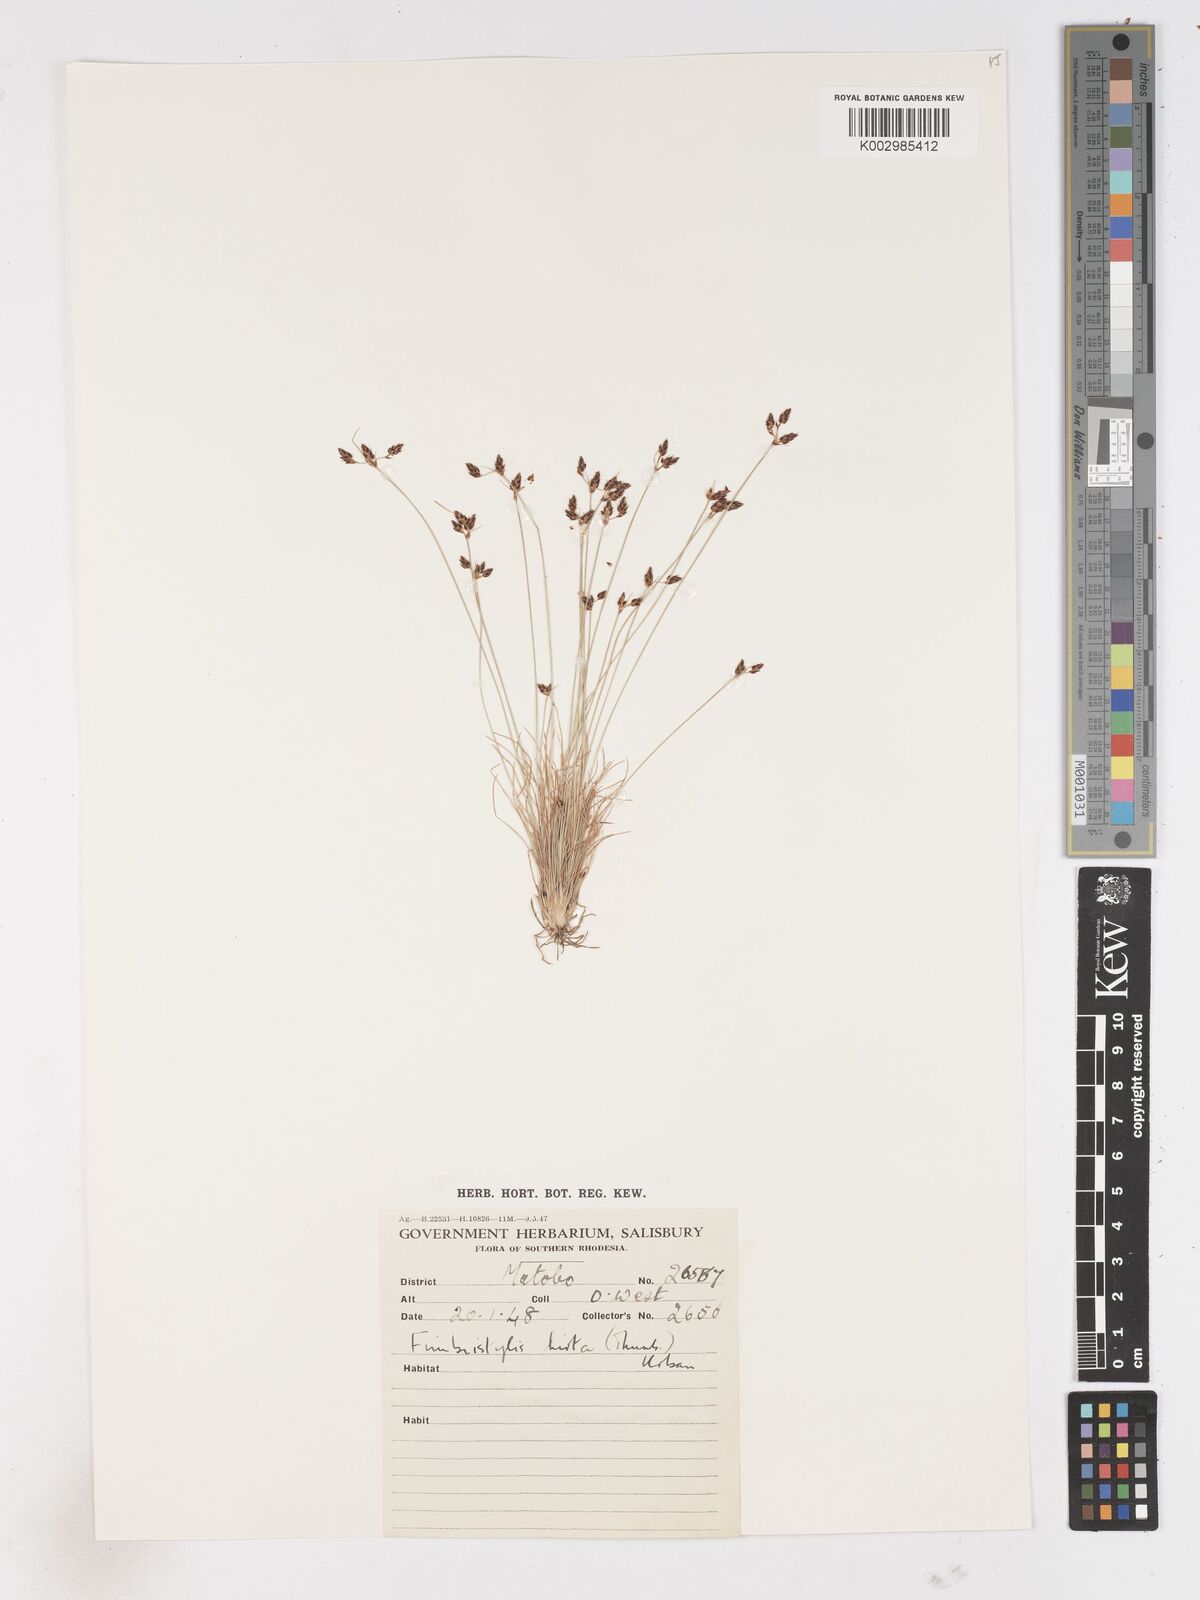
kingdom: Plantae
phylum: Tracheophyta
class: Liliopsida
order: Poales
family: Cyperaceae
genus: Fimbristylis
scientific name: Fimbristylis
